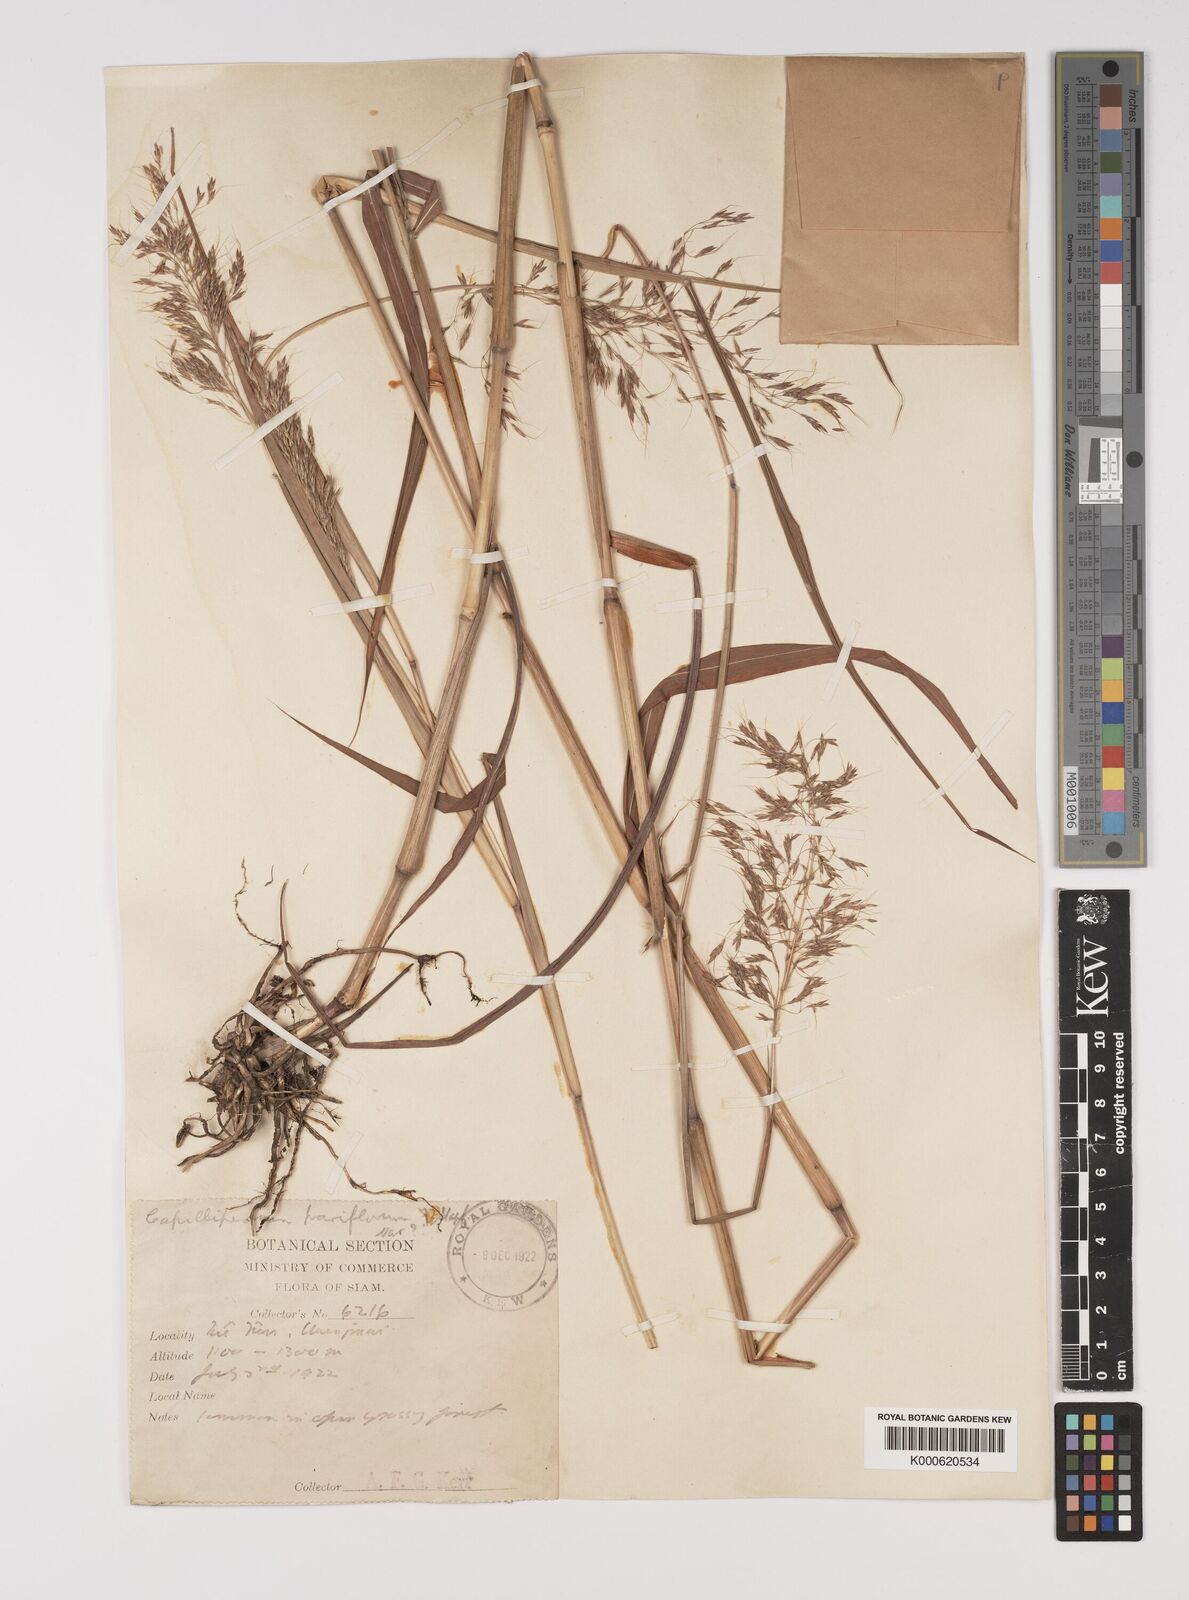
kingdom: Plantae
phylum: Tracheophyta
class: Liliopsida
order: Poales
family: Poaceae
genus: Capillipedium
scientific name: Capillipedium spicigerum
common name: Scented-top grass
